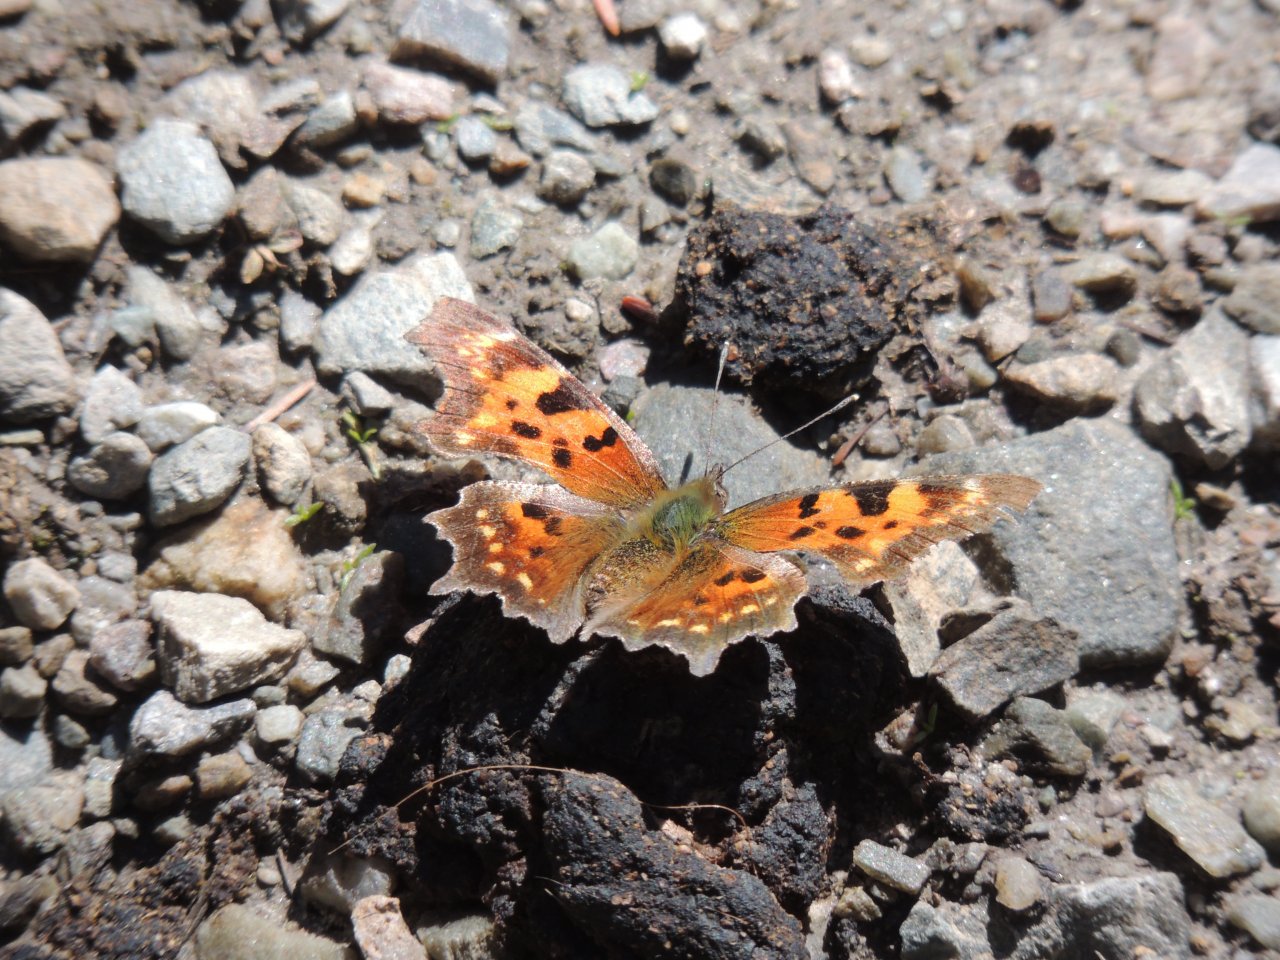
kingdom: Animalia
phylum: Arthropoda
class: Insecta
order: Lepidoptera
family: Nymphalidae
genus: Polygonia
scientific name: Polygonia faunus
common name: Green Comma
